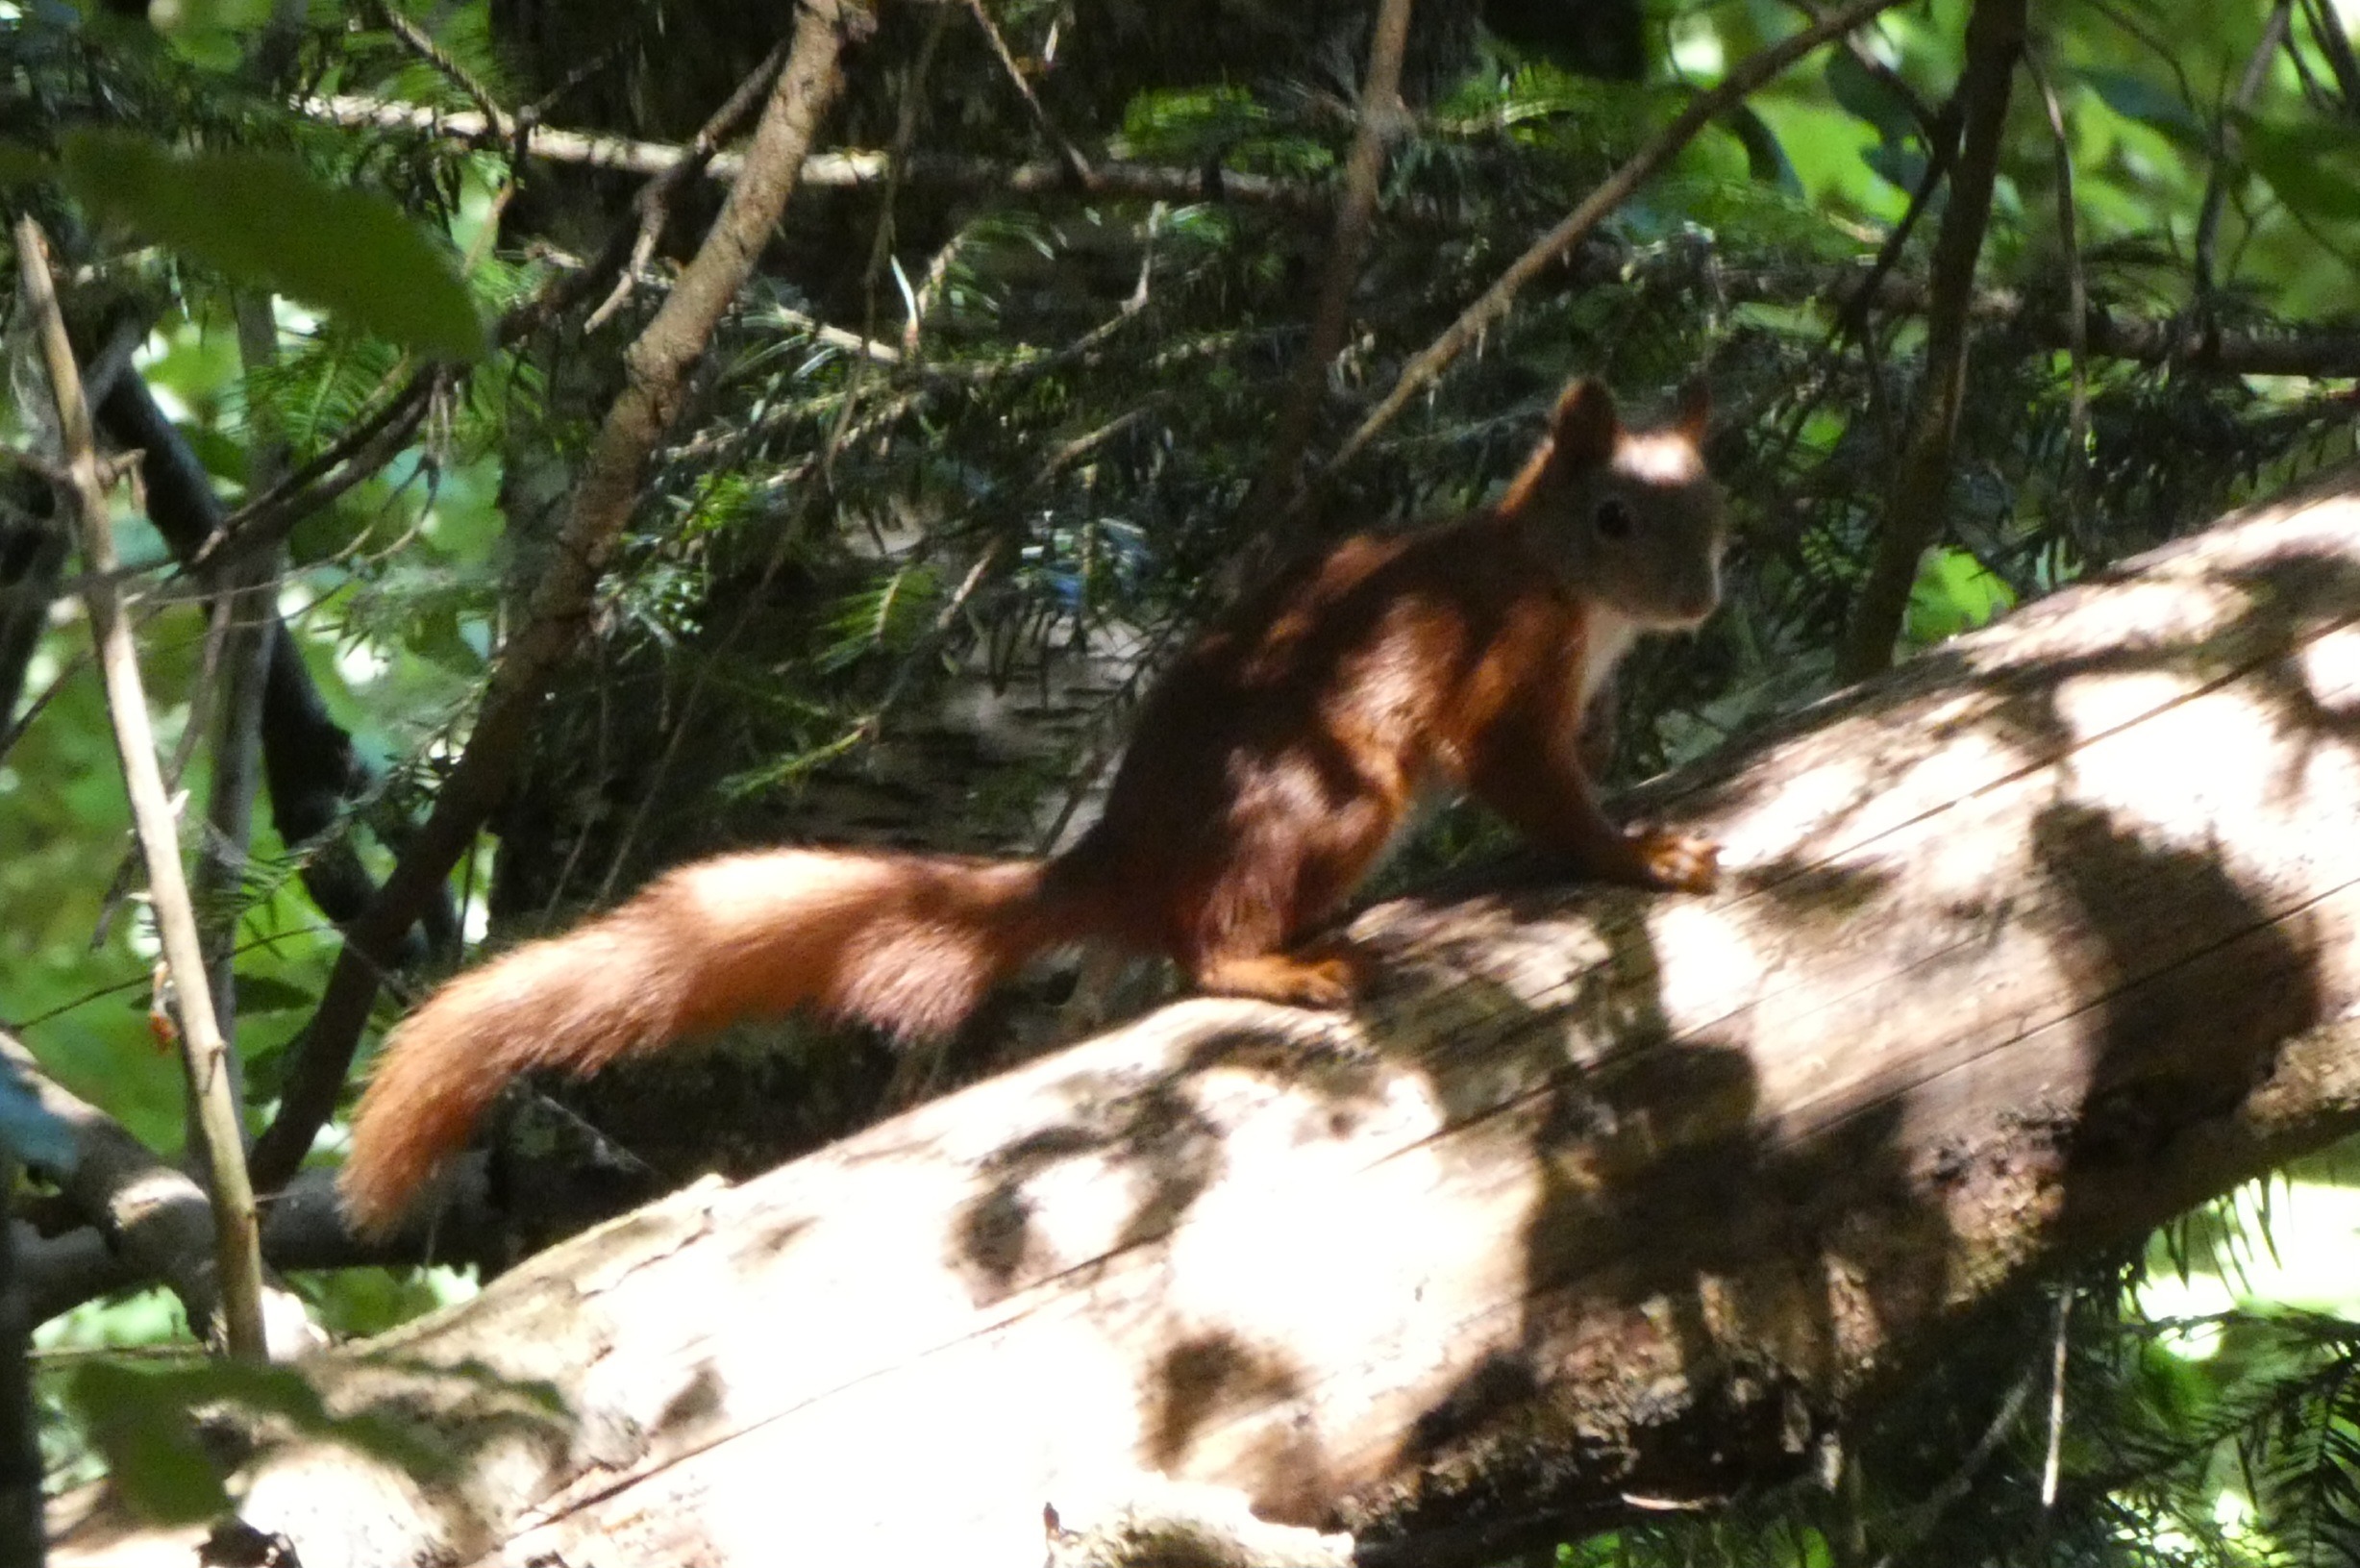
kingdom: Animalia
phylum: Chordata
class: Mammalia
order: Rodentia
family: Sciuridae
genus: Sciurus
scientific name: Sciurus vulgaris
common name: Egern
